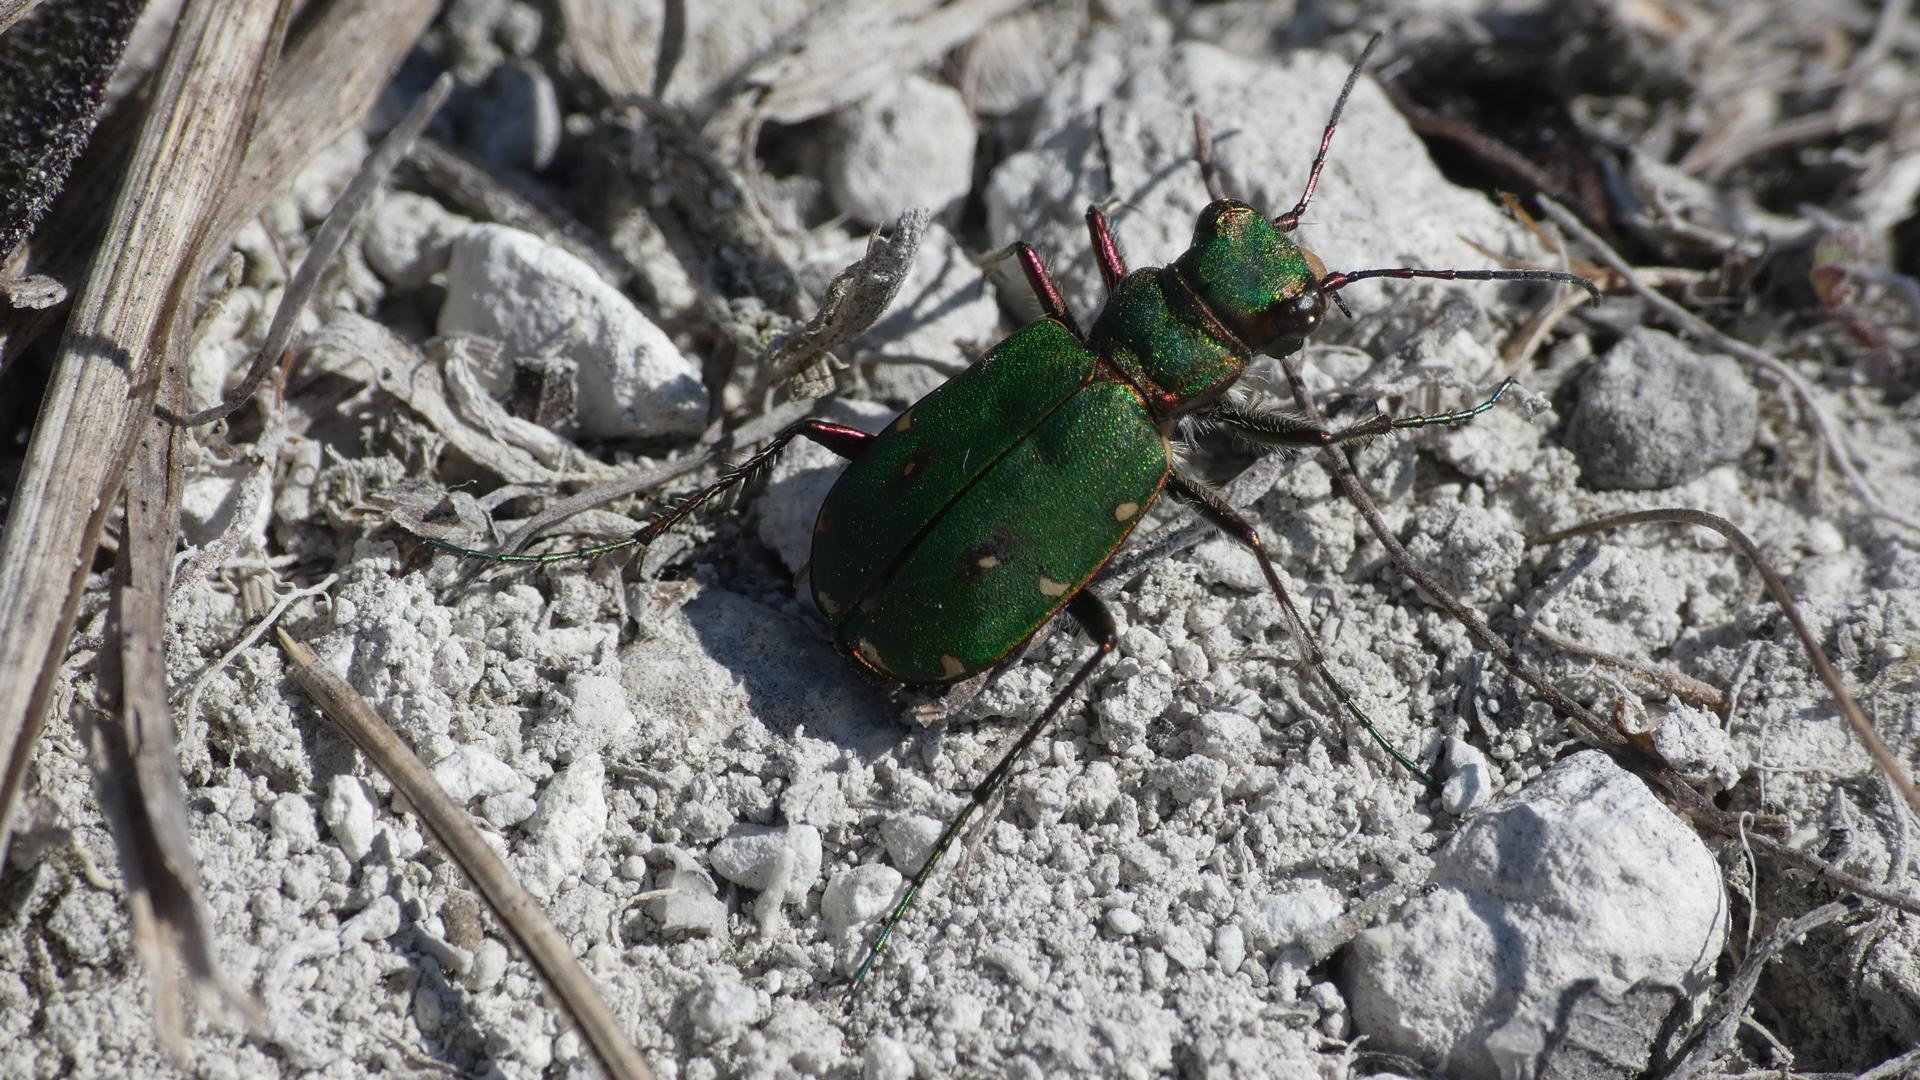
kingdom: Animalia
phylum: Arthropoda
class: Insecta
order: Coleoptera
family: Carabidae
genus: Cicindela
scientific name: Cicindela campestris
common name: Grøn sandspringer
